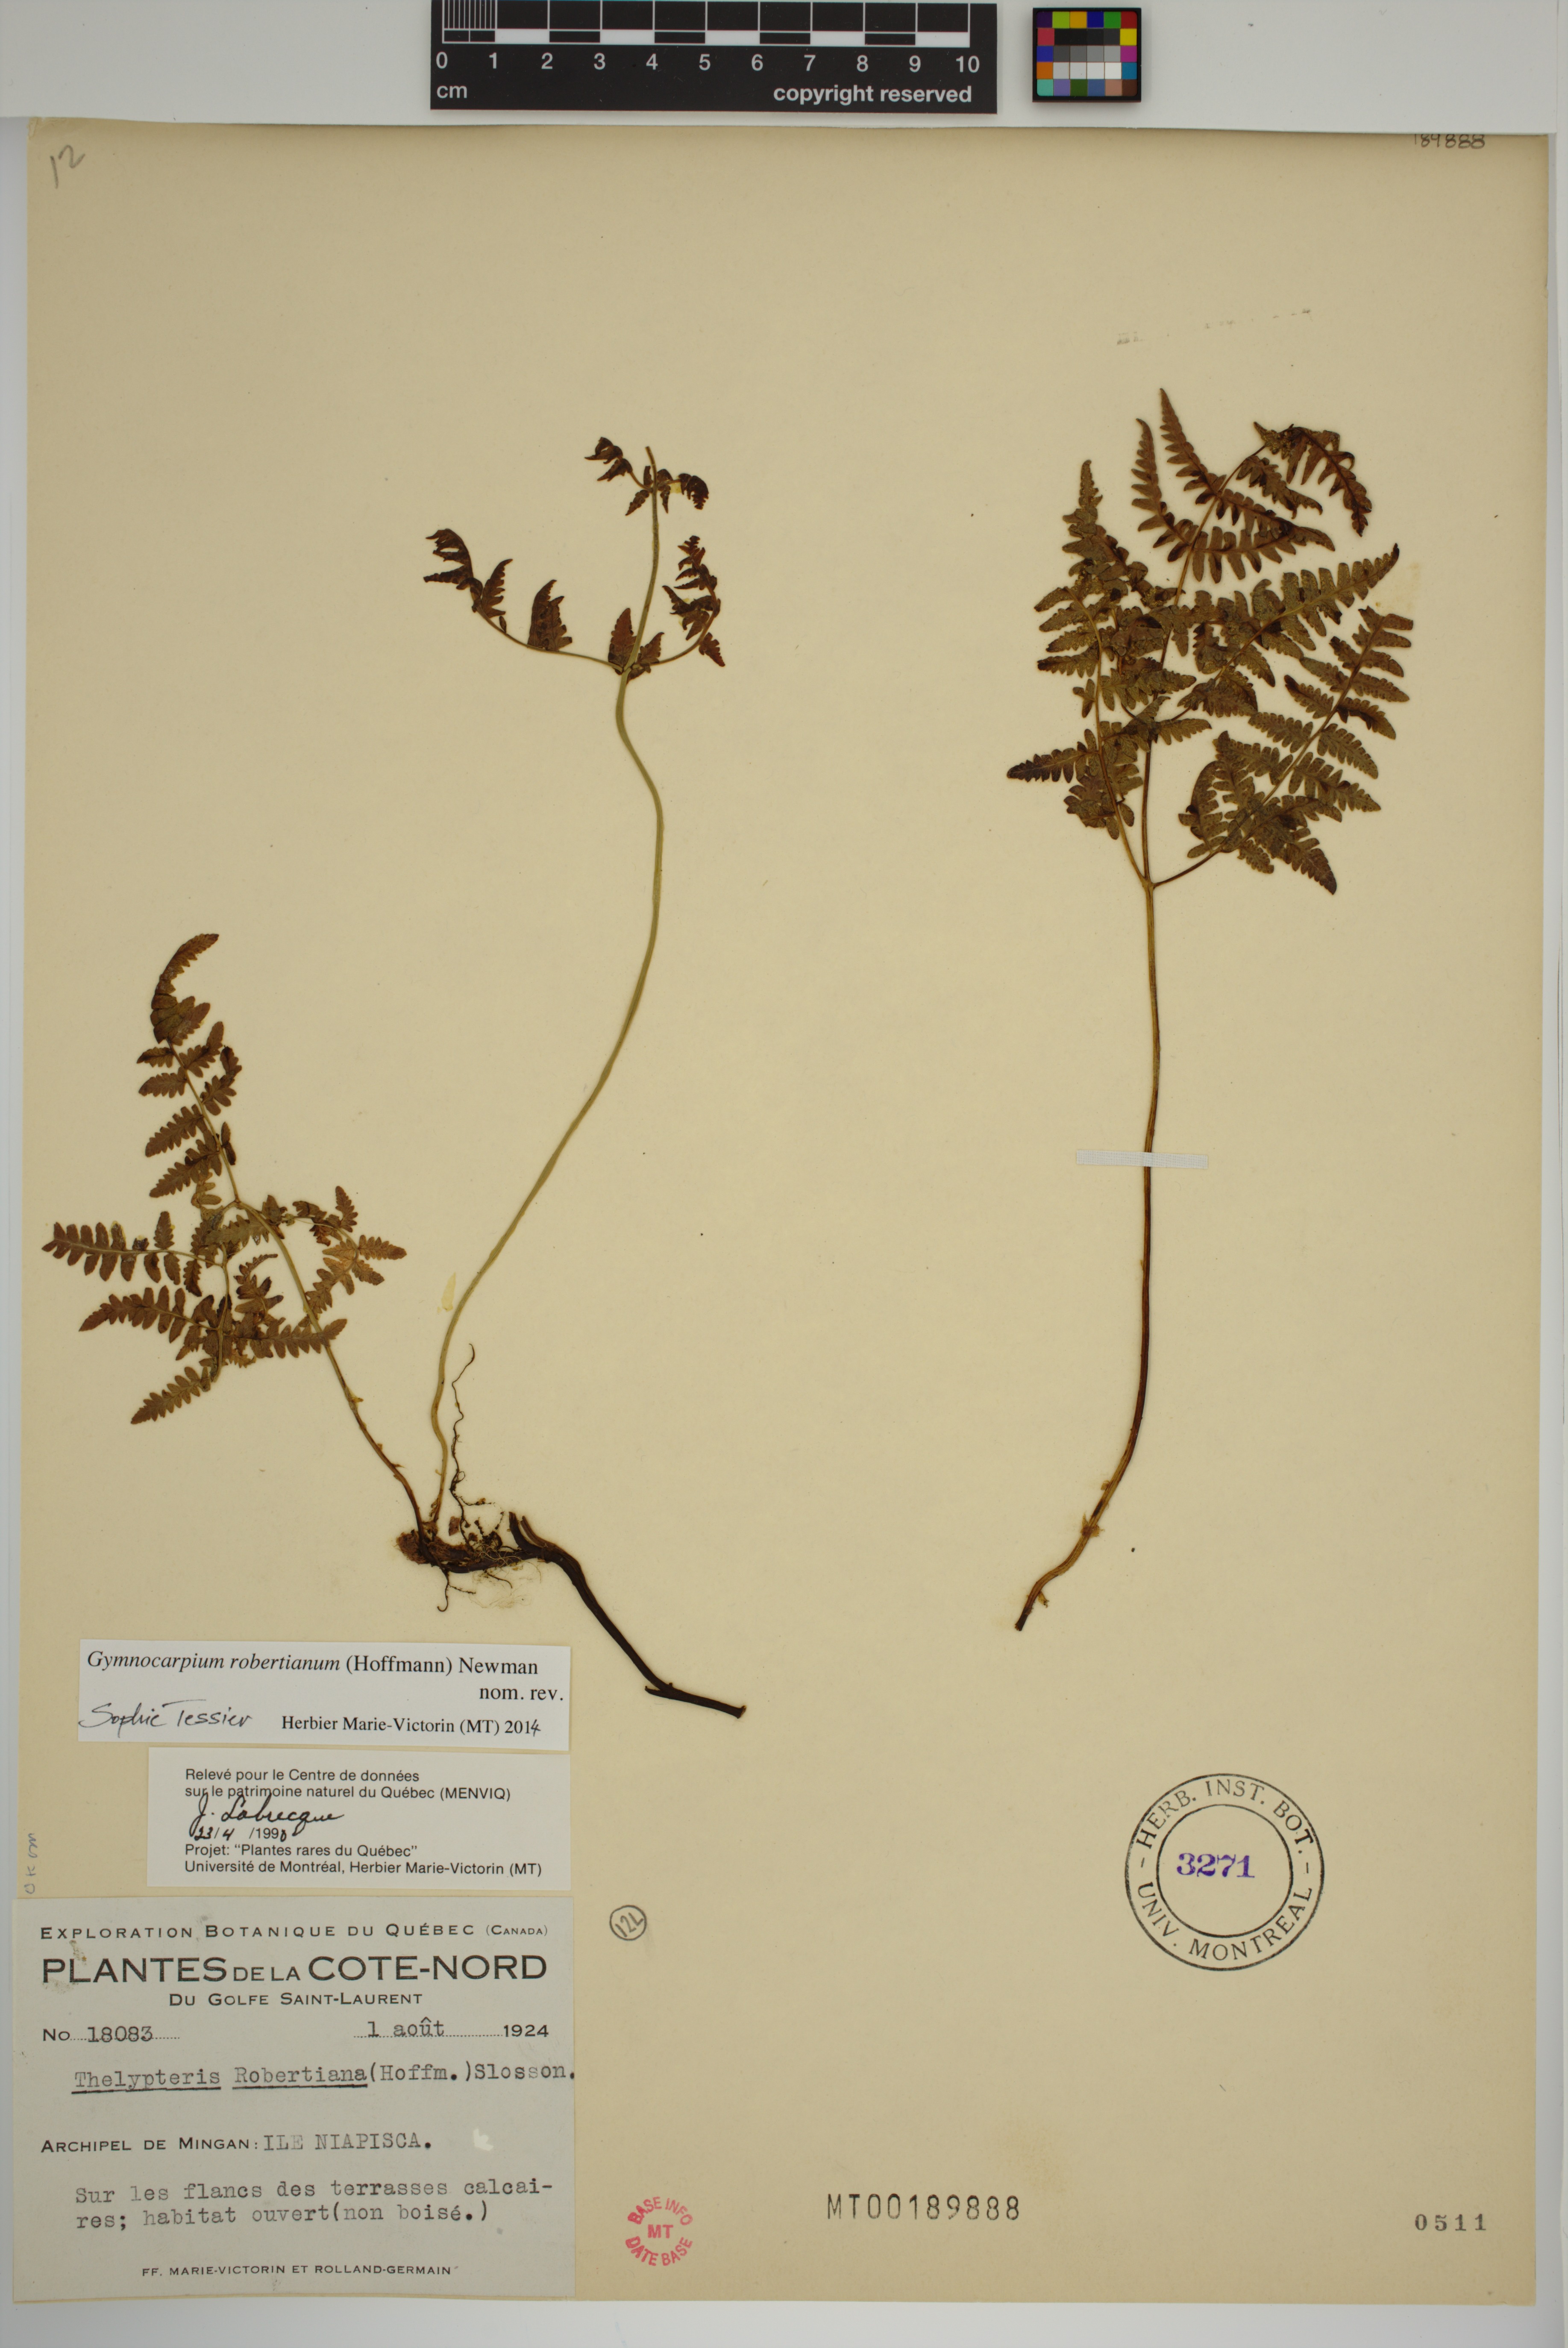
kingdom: Plantae
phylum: Tracheophyta
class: Polypodiopsida
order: Polypodiales
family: Cystopteridaceae
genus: Gymnocarpium
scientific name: Gymnocarpium robertianum
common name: Limestone fern
